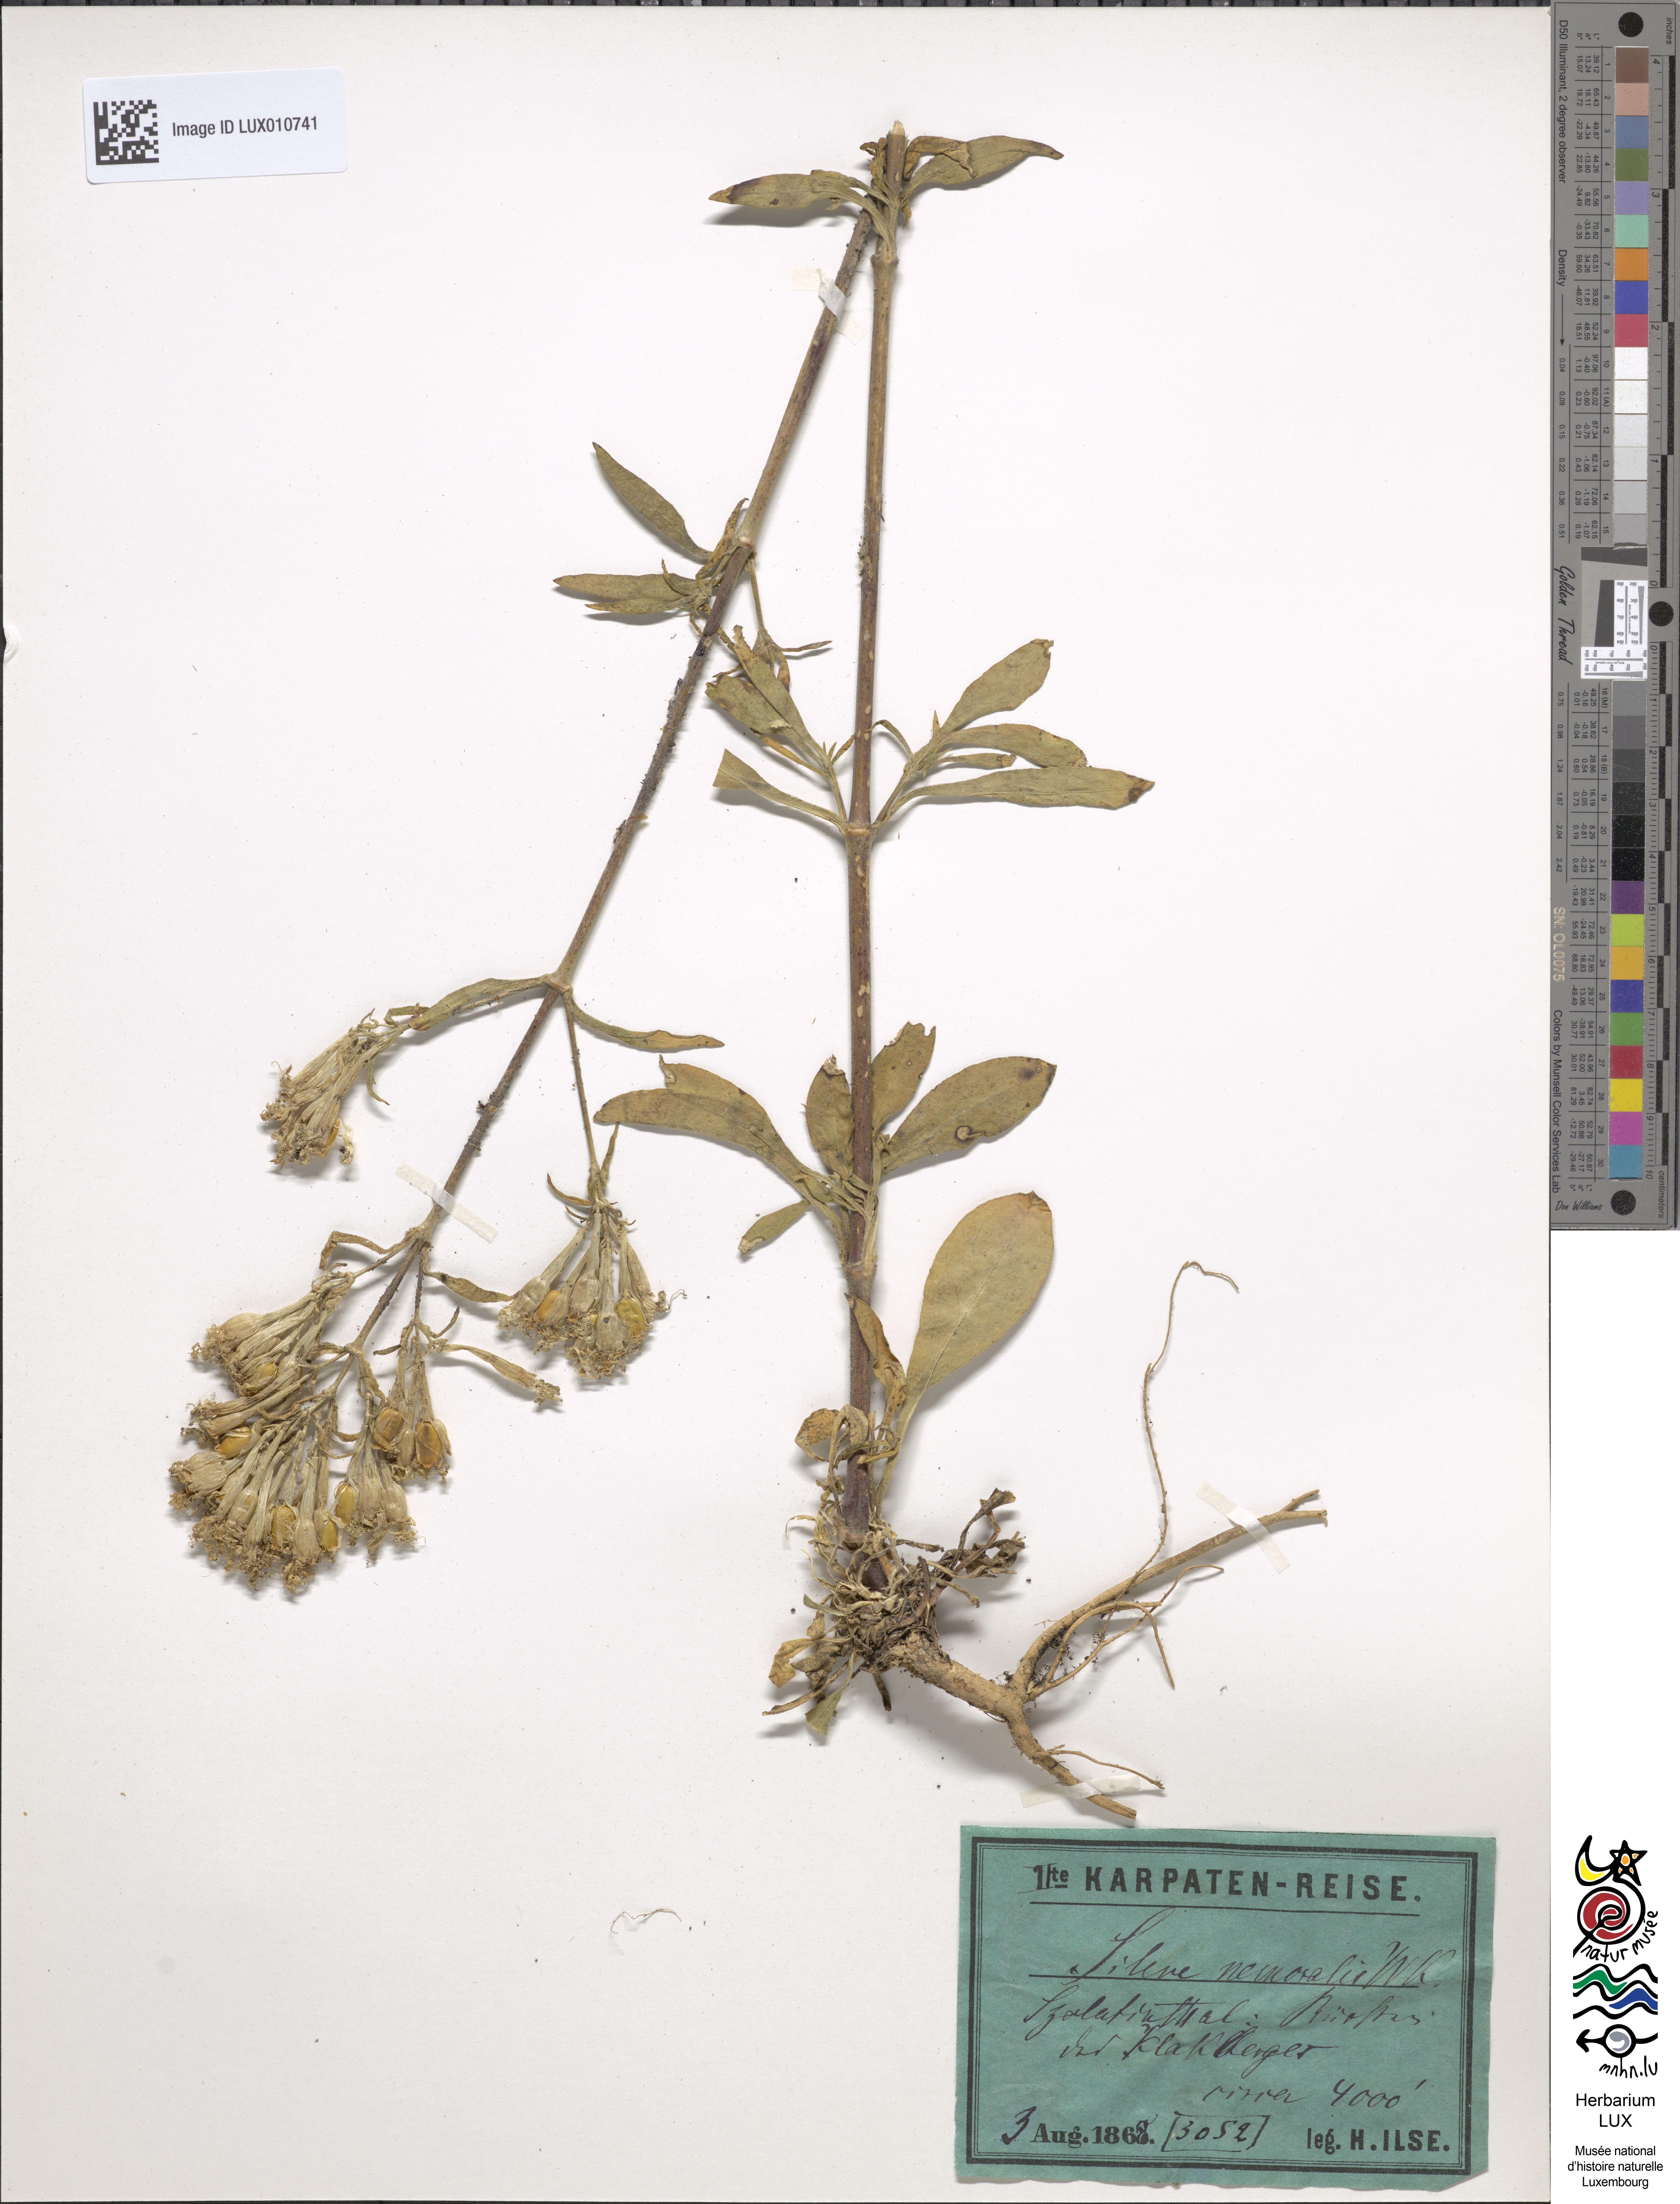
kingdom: Plantae
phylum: Tracheophyta
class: Magnoliopsida
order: Caryophyllales
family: Caryophyllaceae
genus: Silene
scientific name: Silene nemoralis
